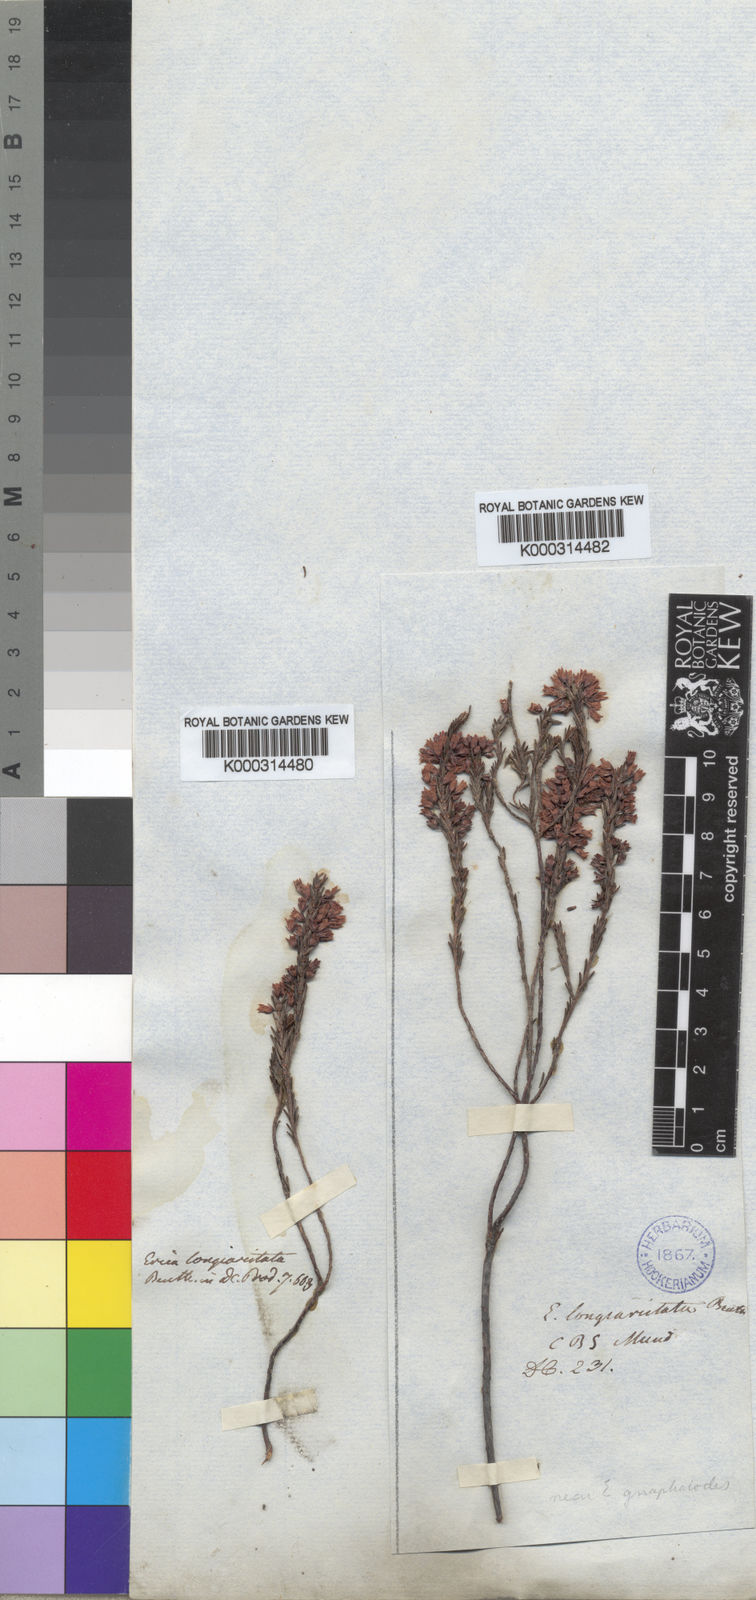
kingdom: Plantae
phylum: Tracheophyta
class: Magnoliopsida
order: Ericales
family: Ericaceae
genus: Erica
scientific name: Erica longiaristata
